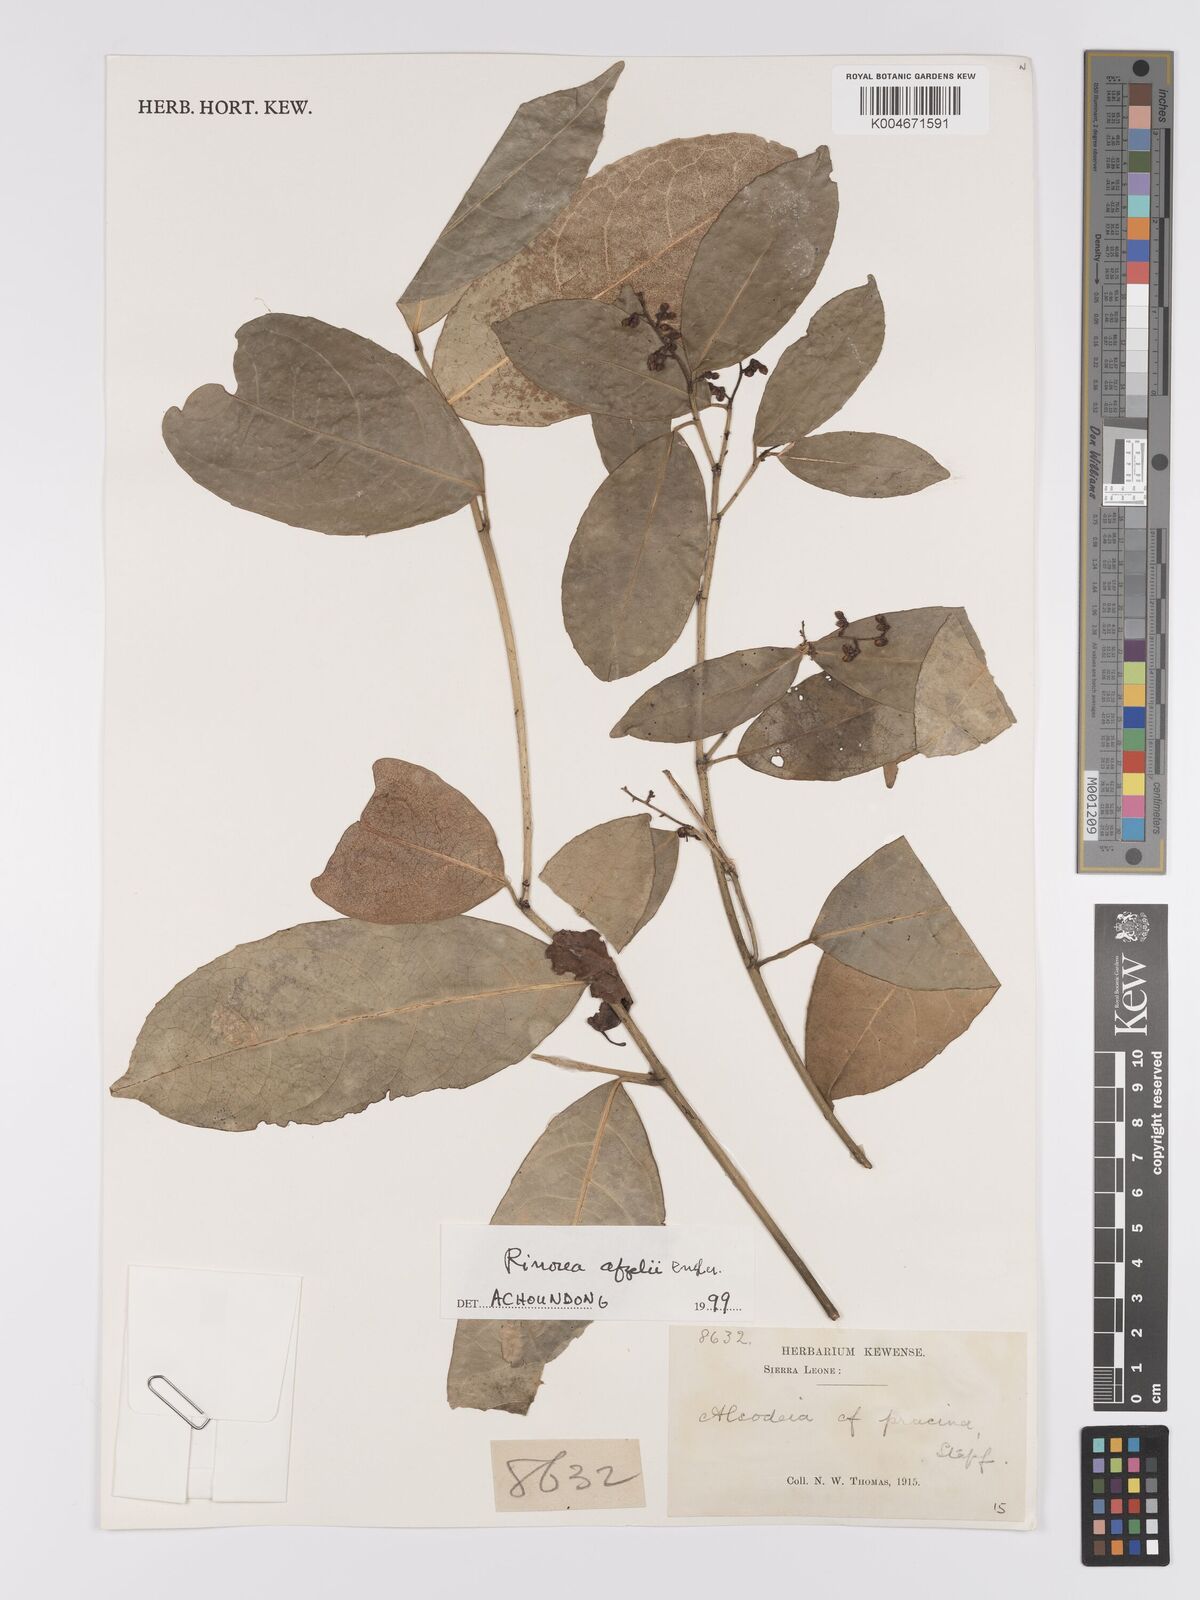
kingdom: Plantae
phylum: Tracheophyta
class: Magnoliopsida
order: Malpighiales
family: Violaceae
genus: Rinorea
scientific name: Rinorea afzelii
